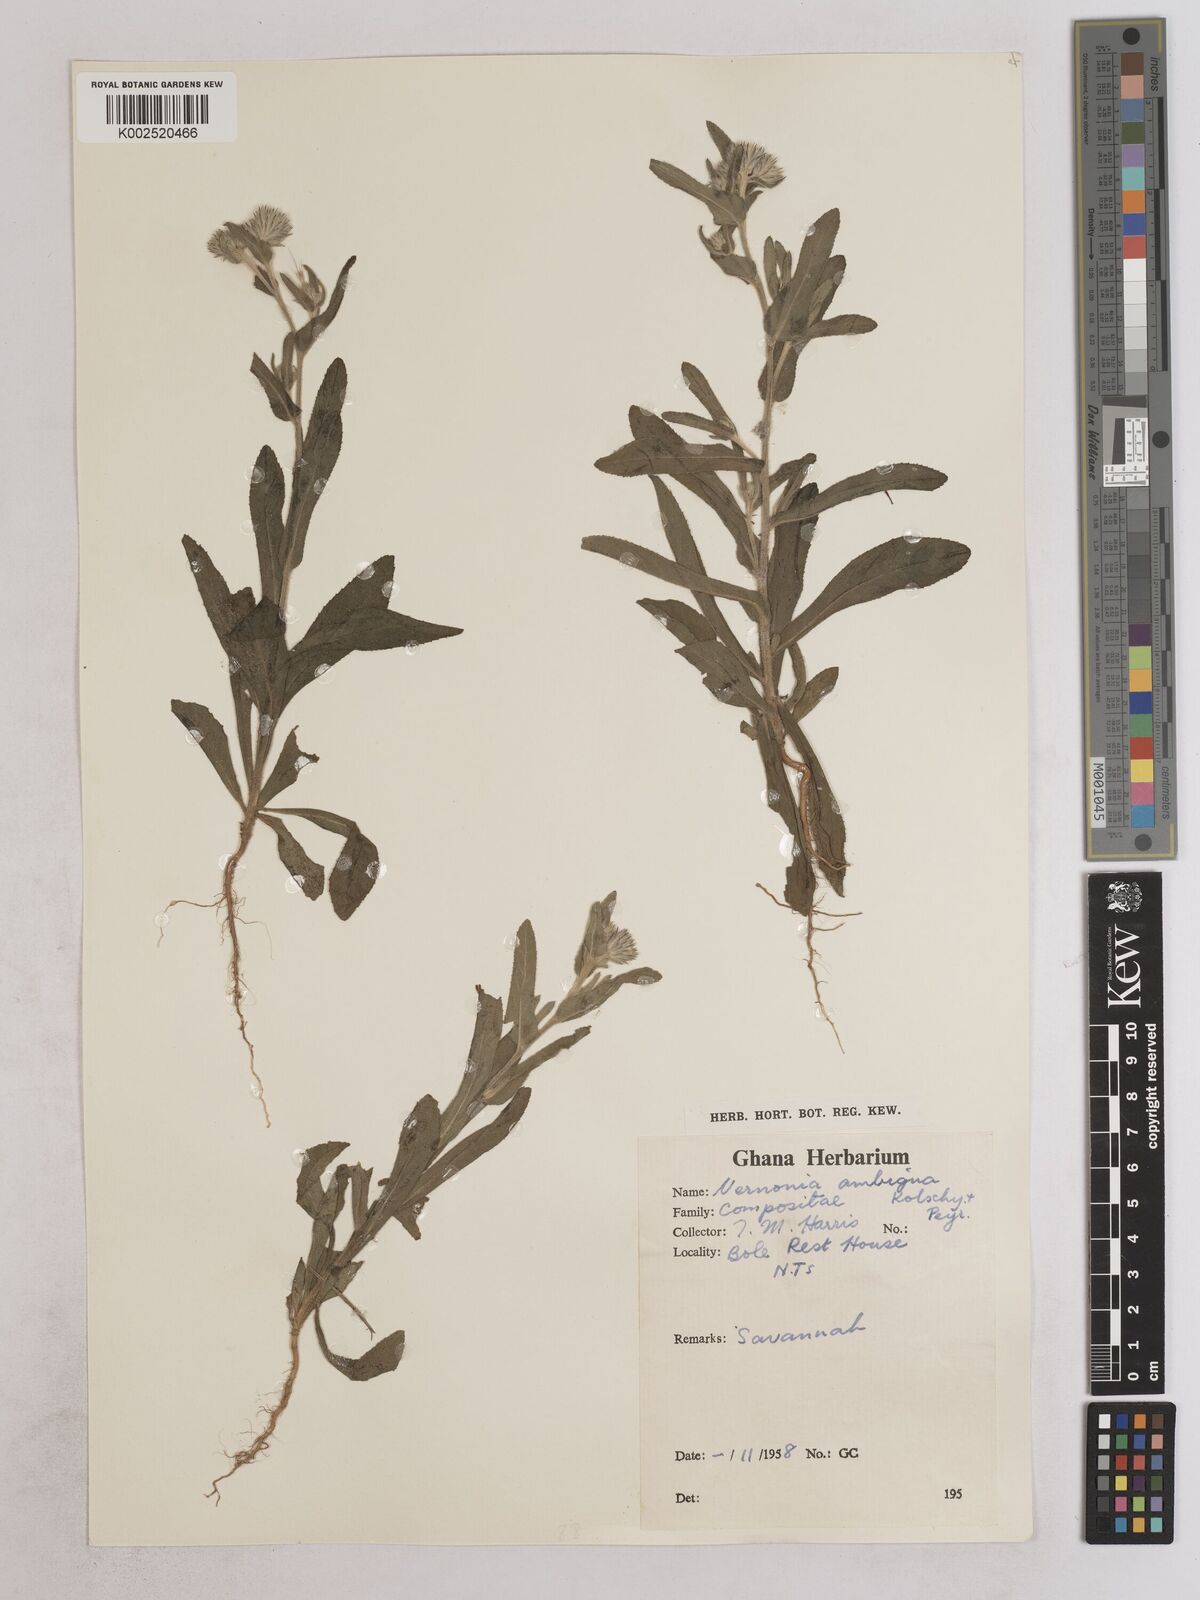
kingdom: Plantae
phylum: Tracheophyta
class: Magnoliopsida
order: Asterales
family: Asteraceae
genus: Vernoniastrum
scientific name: Vernoniastrum ambiguum
